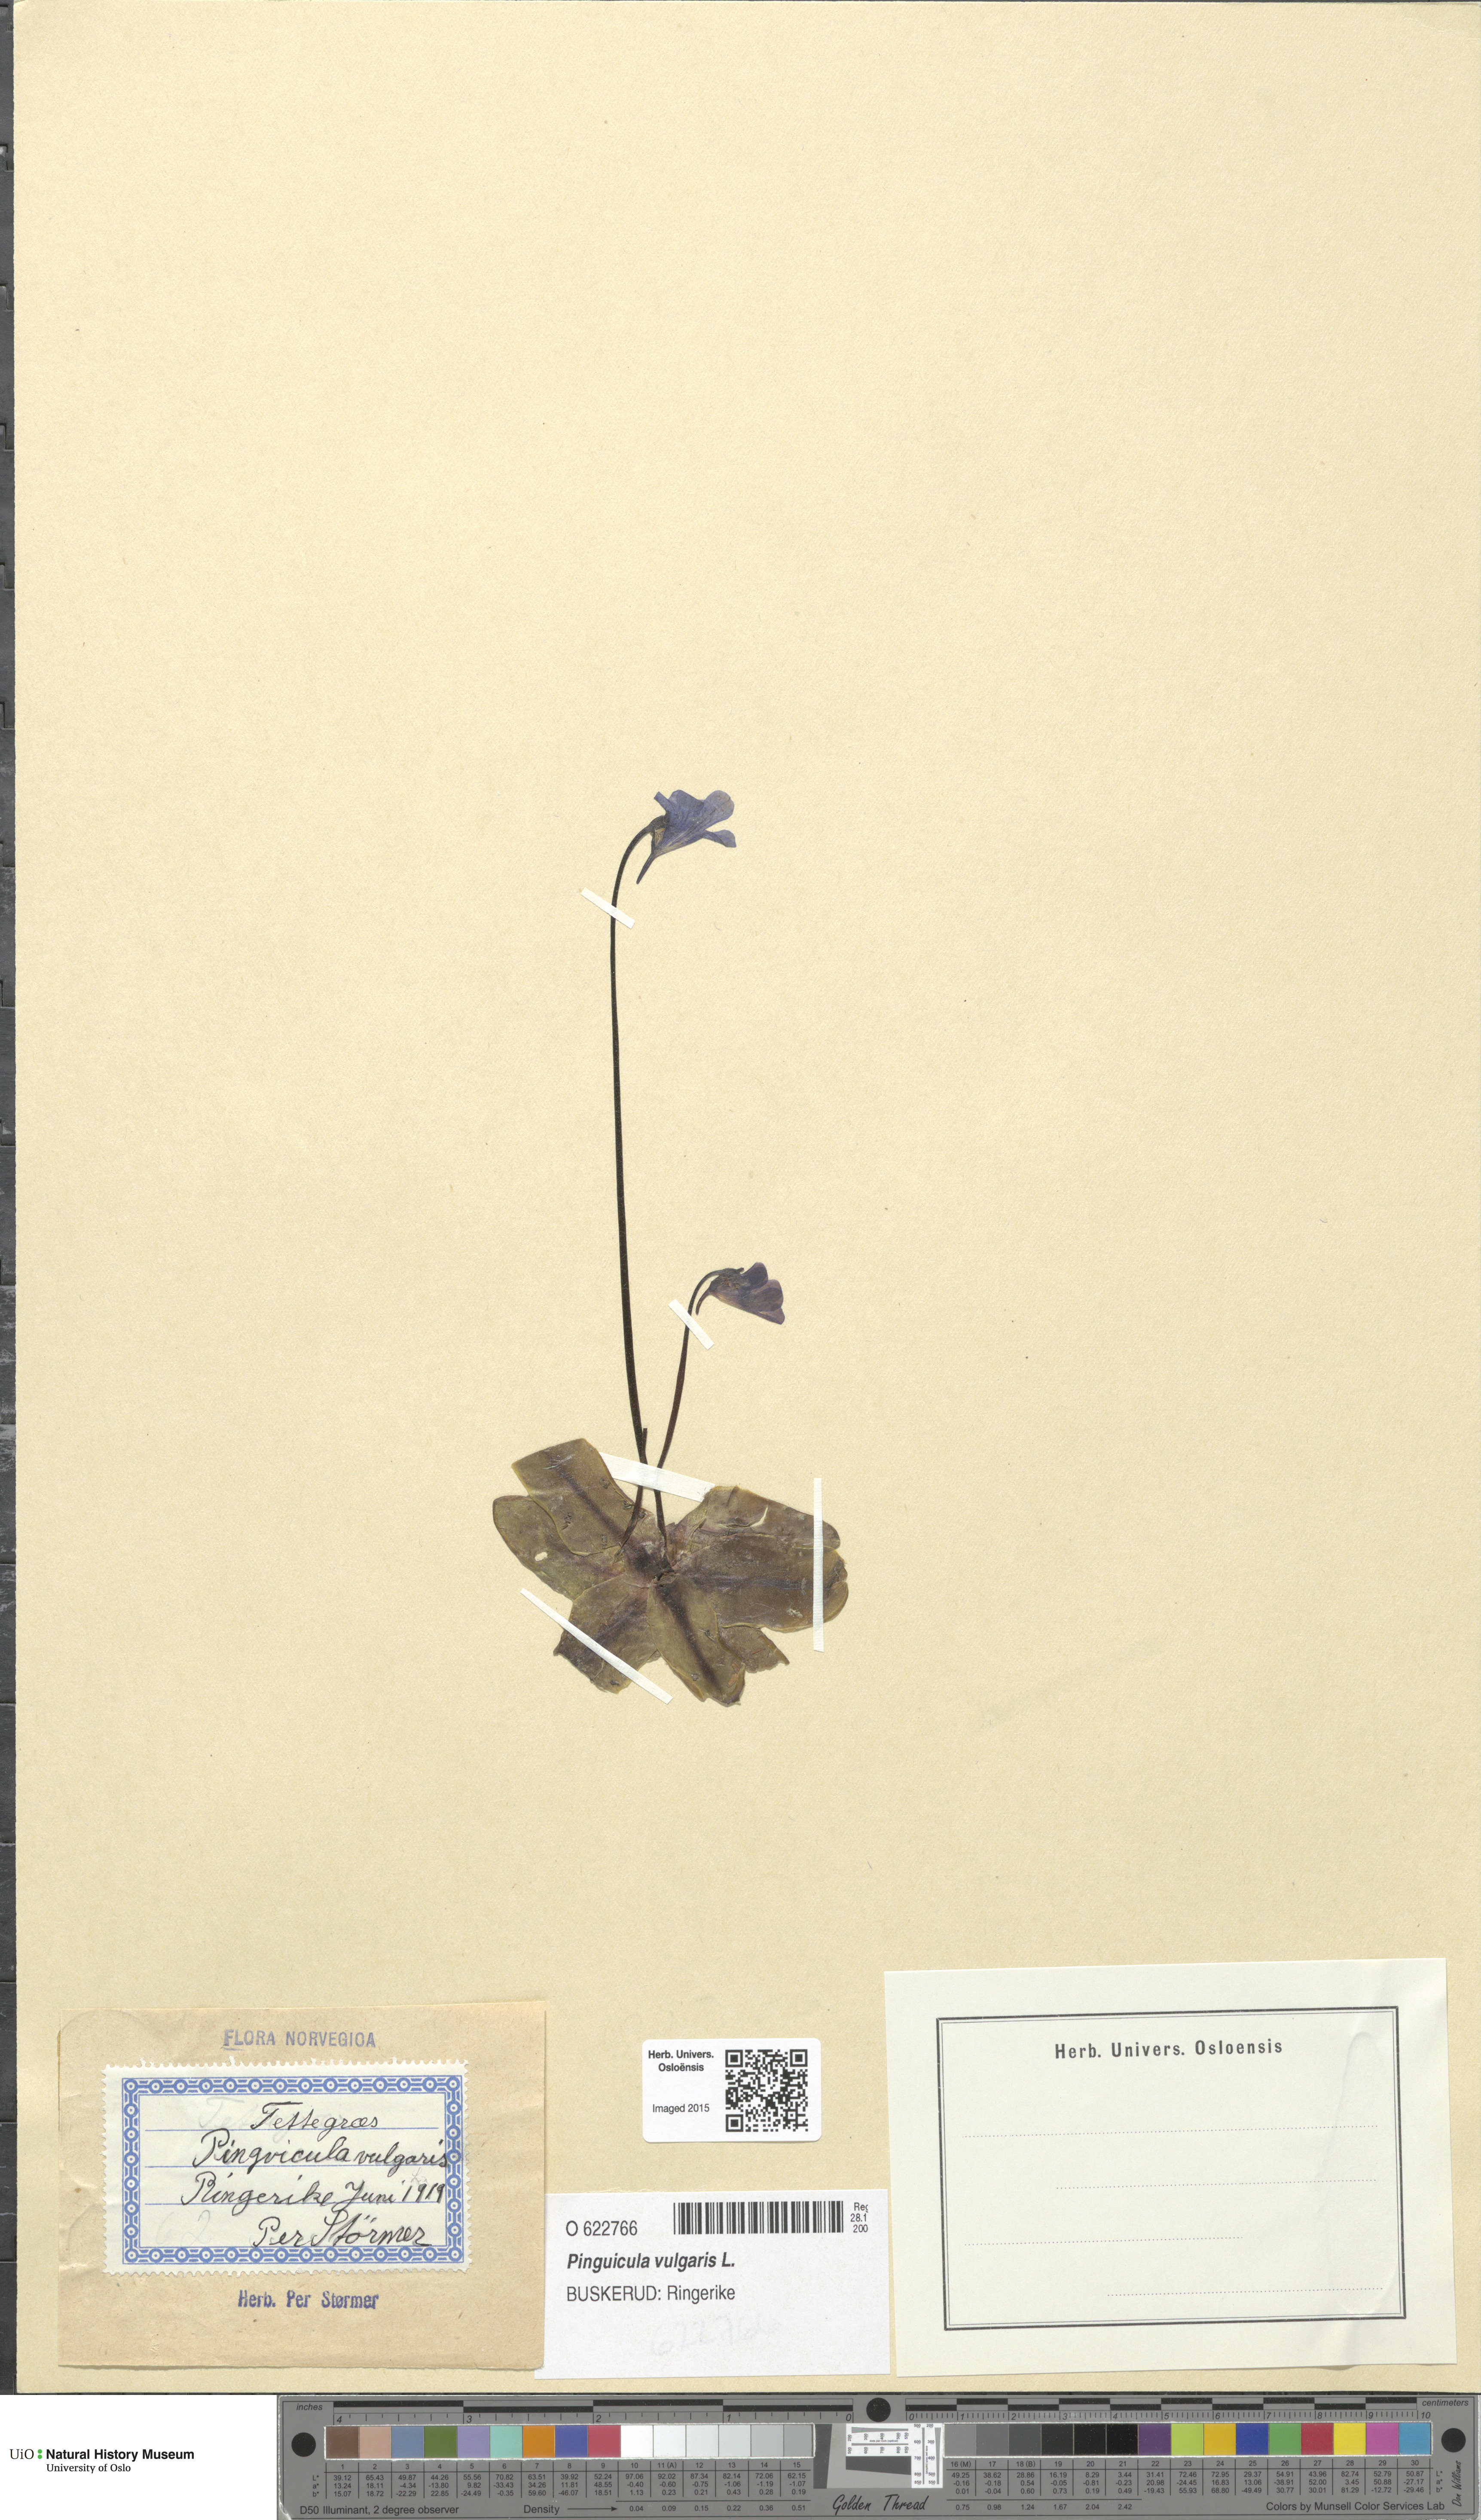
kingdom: Plantae
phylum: Tracheophyta
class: Magnoliopsida
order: Lamiales
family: Lentibulariaceae
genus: Pinguicula
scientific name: Pinguicula vulgaris
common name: Common butterwort
